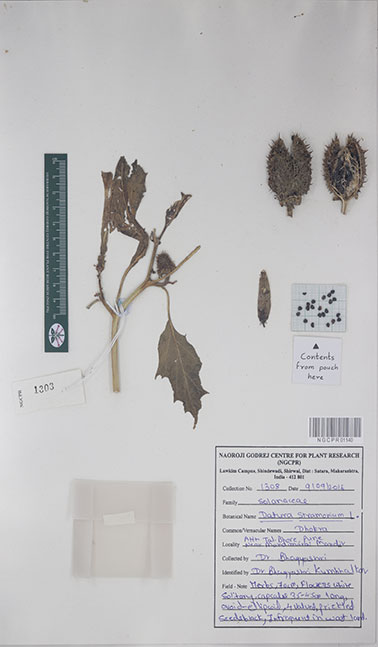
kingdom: Plantae
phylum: Tracheophyta
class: Magnoliopsida
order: Solanales
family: Solanaceae
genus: Datura
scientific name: Datura stramonium
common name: Thorn-apple
